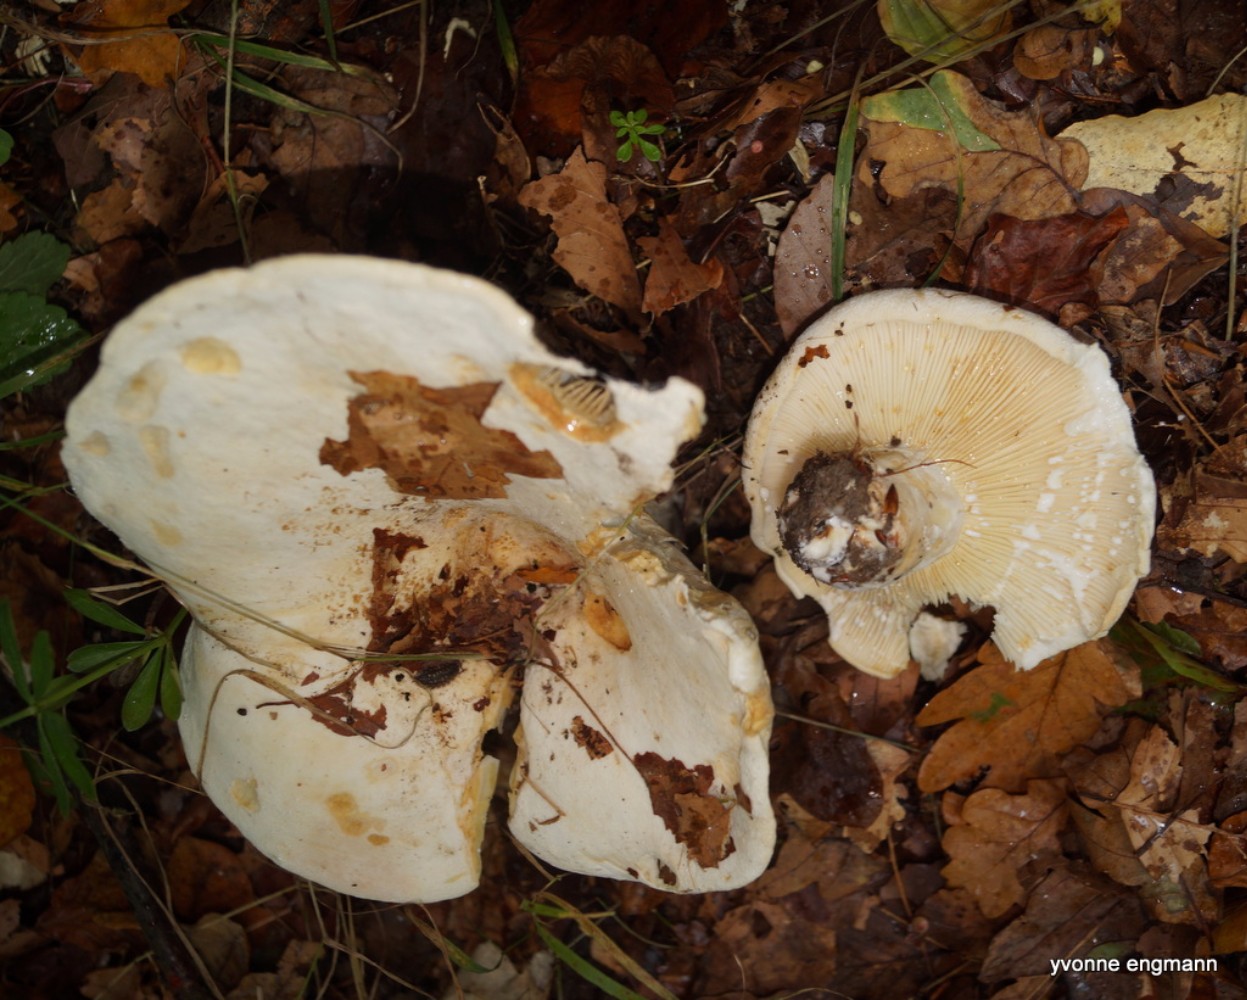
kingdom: Fungi
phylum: Basidiomycota
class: Agaricomycetes
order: Russulales
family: Russulaceae
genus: Lactifluus
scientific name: Lactifluus vellereus
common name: hvidfiltet mælkehat
